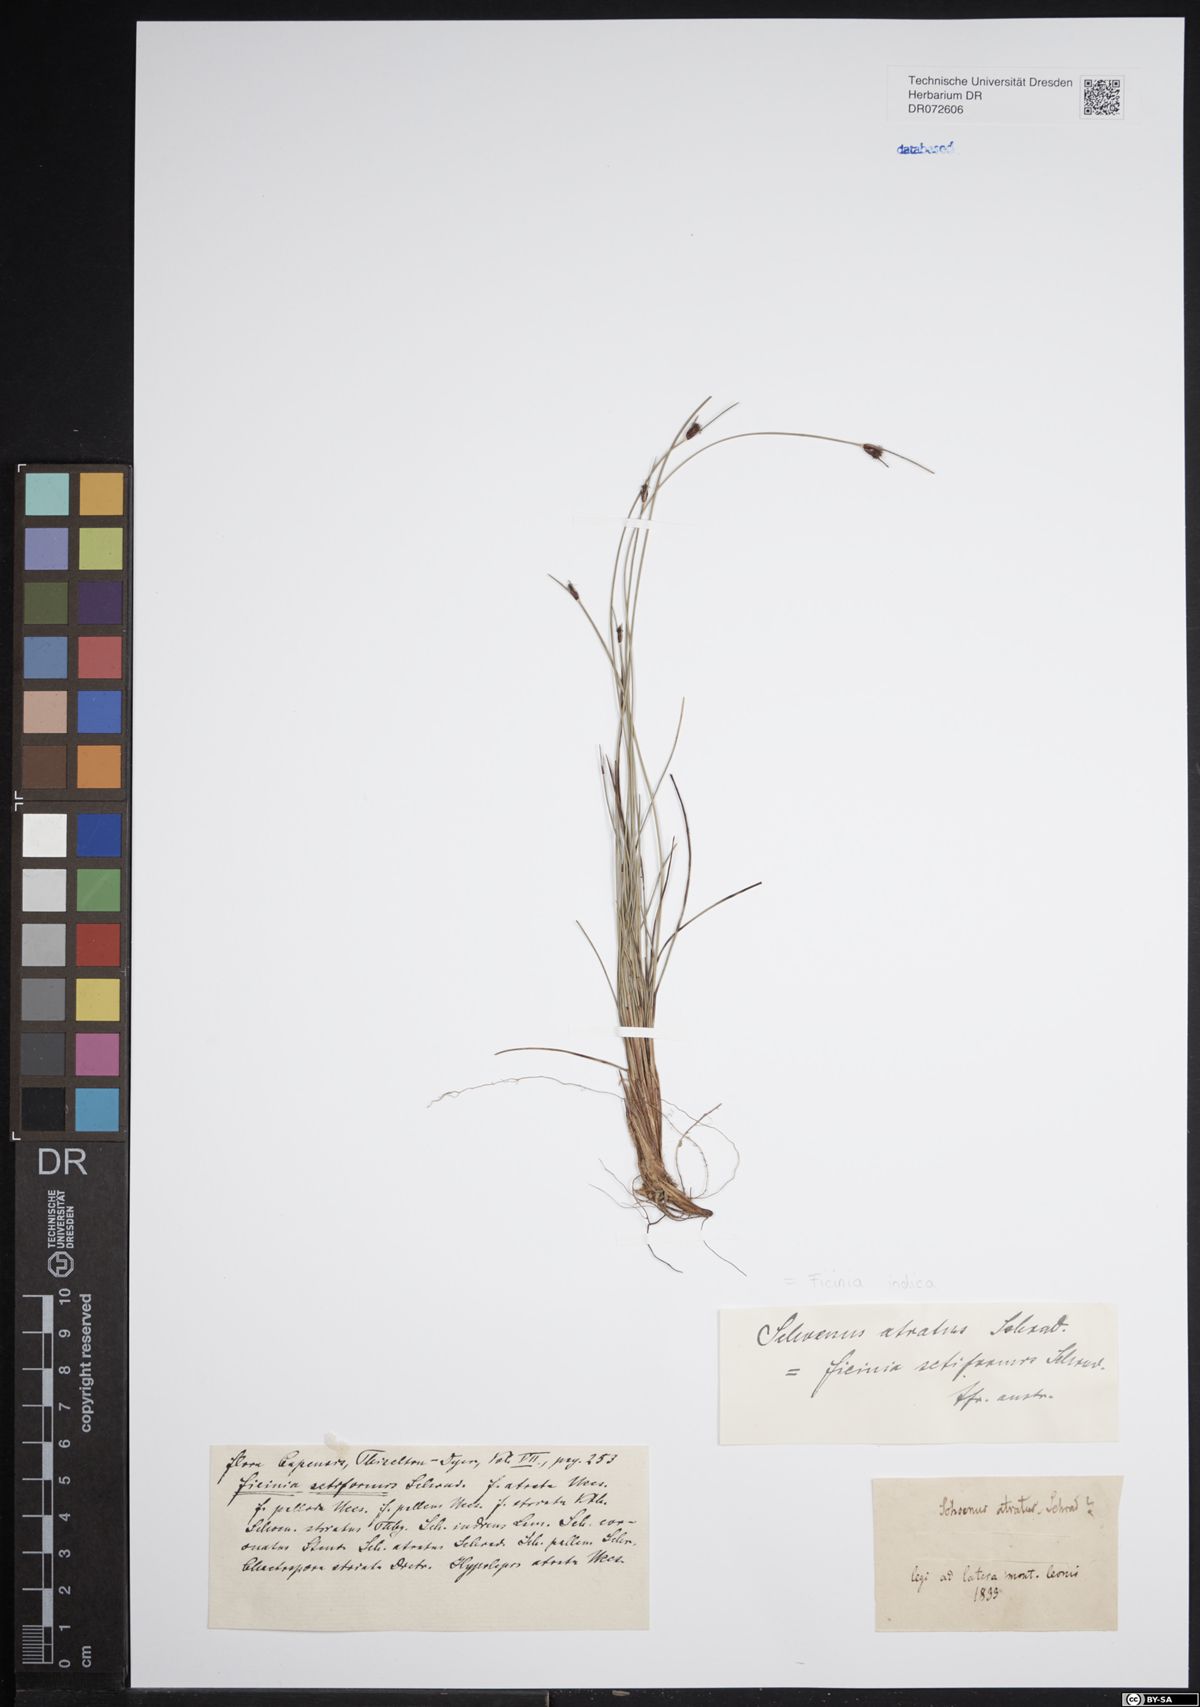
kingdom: Plantae
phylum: Tracheophyta
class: Liliopsida
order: Poales
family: Cyperaceae
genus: Ficinia
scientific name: Ficinia indica
